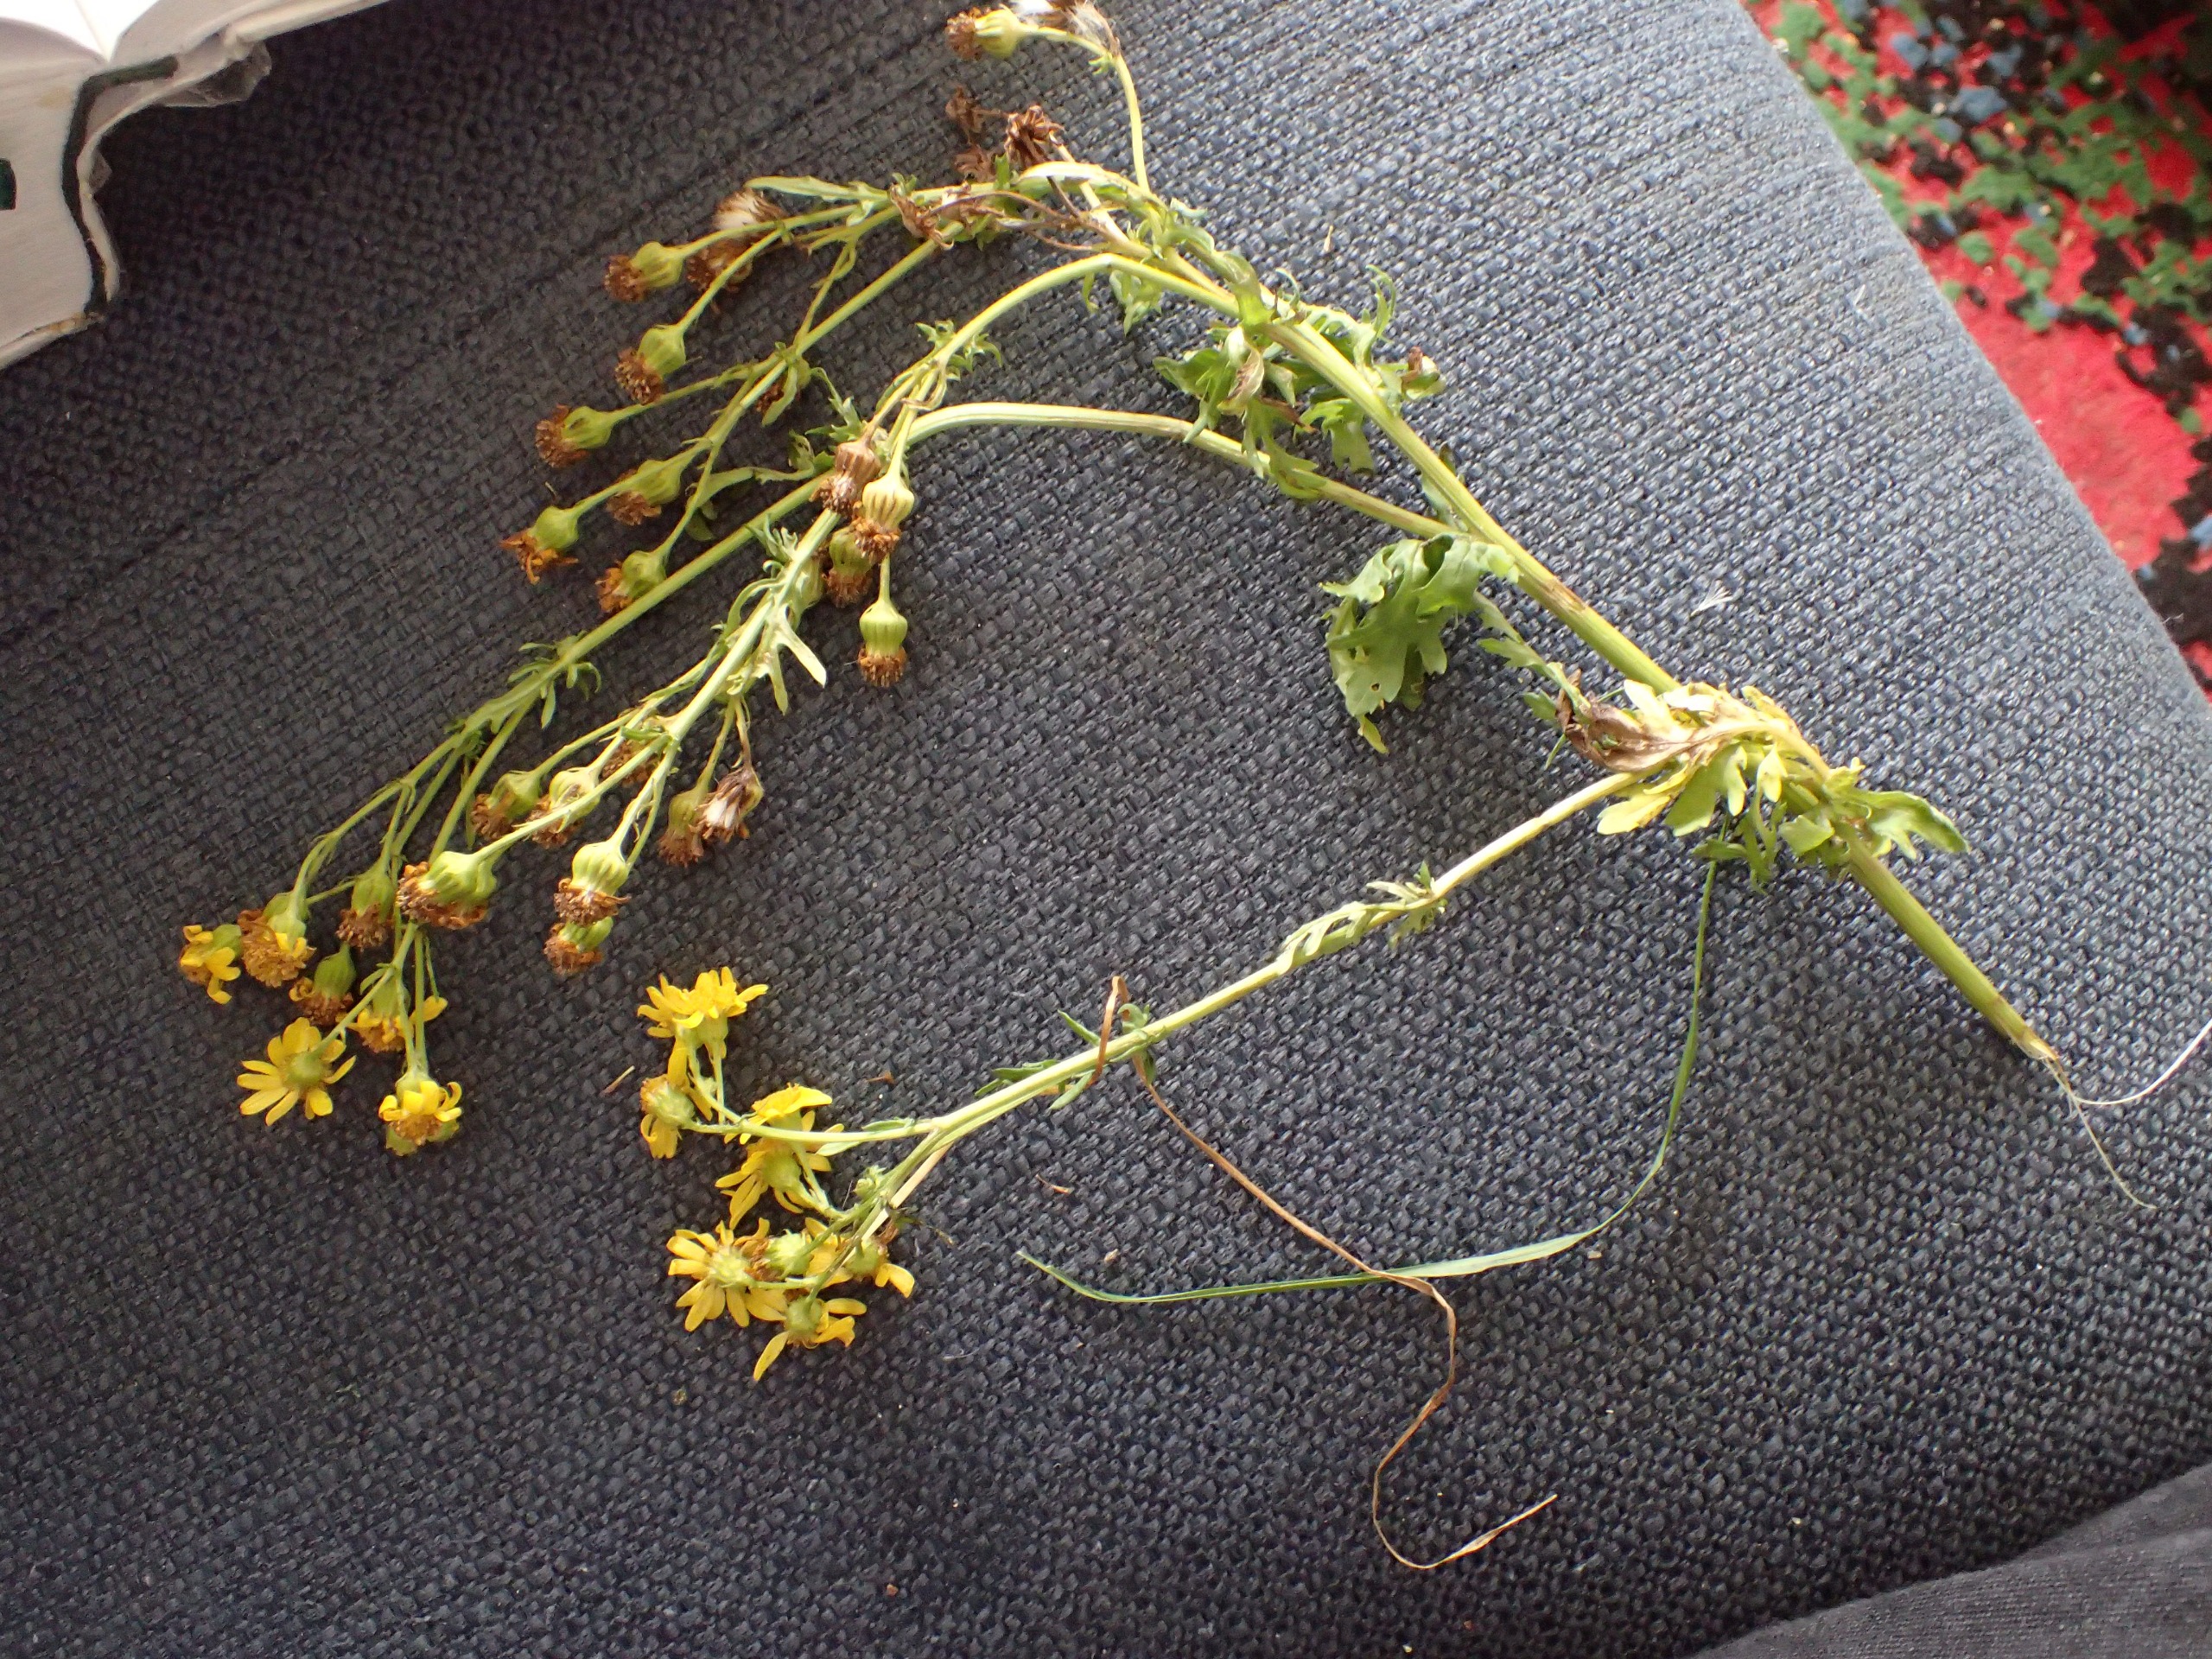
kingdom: Plantae
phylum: Tracheophyta
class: Magnoliopsida
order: Asterales
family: Asteraceae
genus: Senecio
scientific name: Senecio squalidus
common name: Italiensk brandbæger
